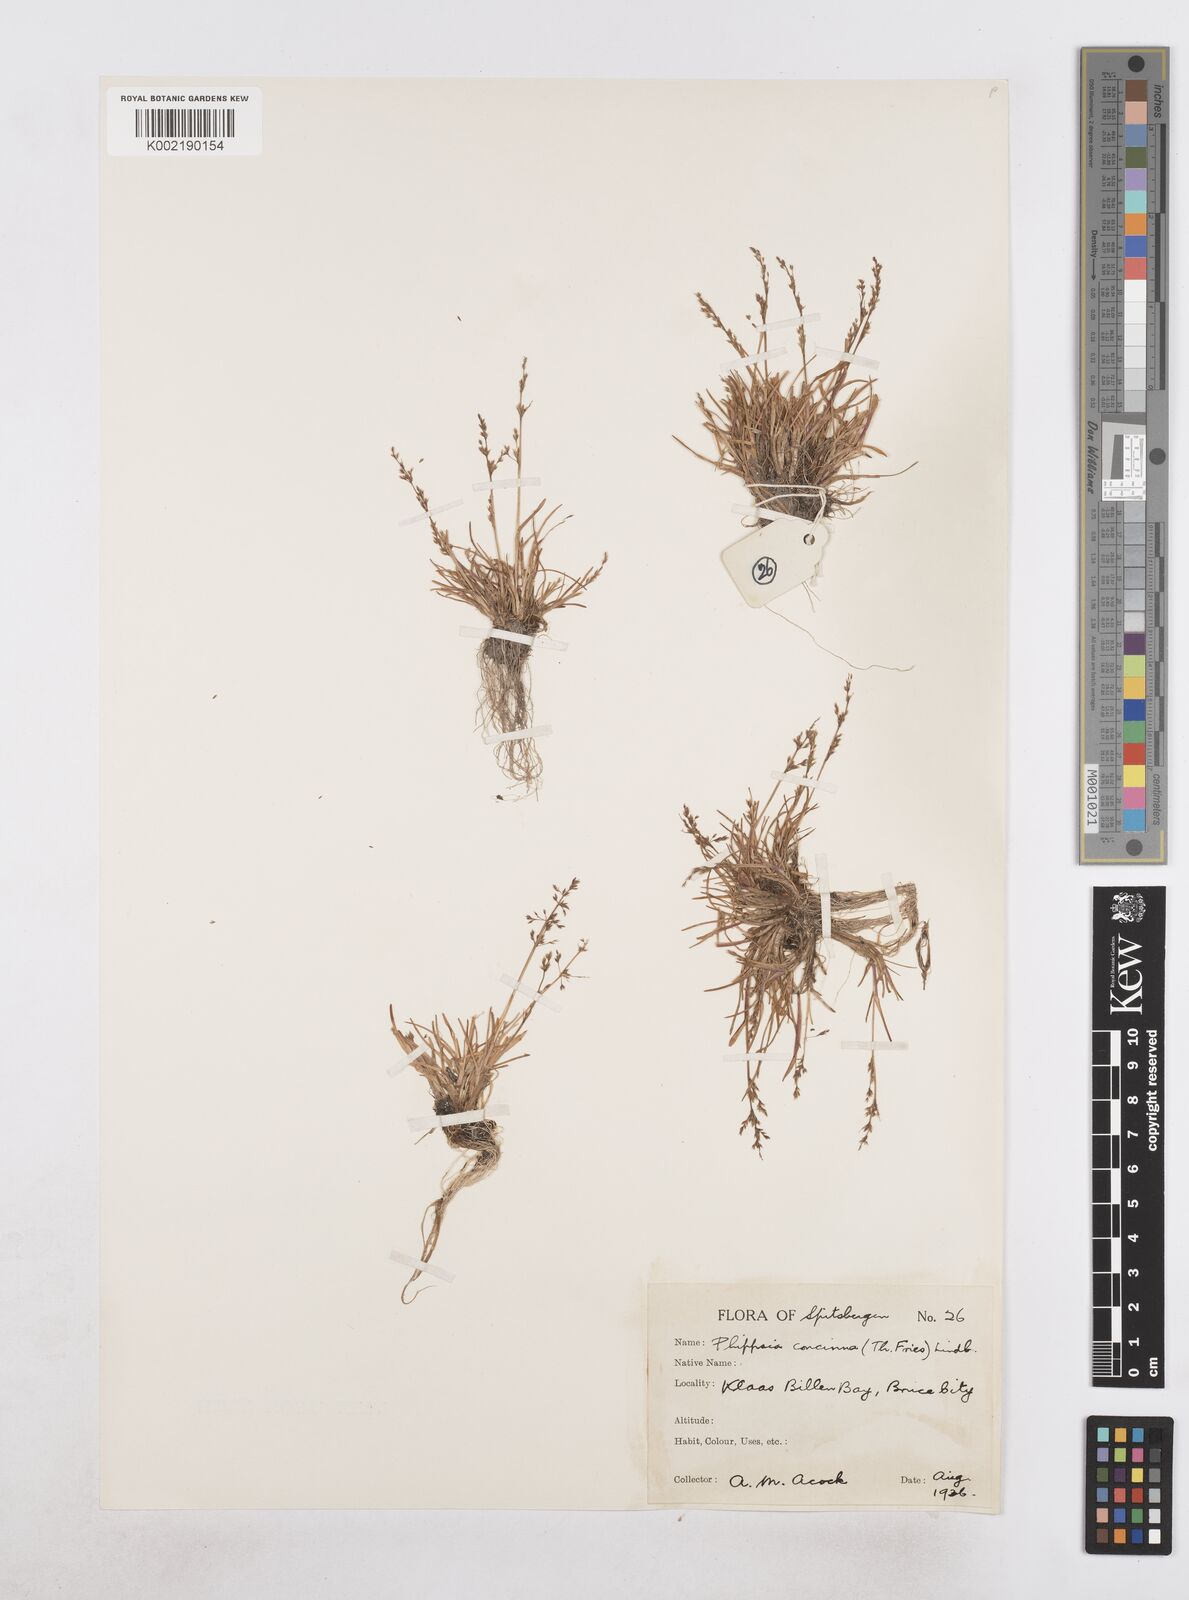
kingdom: Plantae
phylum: Tracheophyta
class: Liliopsida
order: Poales
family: Poaceae
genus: Phippsia
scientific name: Phippsia concinna
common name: Snowgrass
